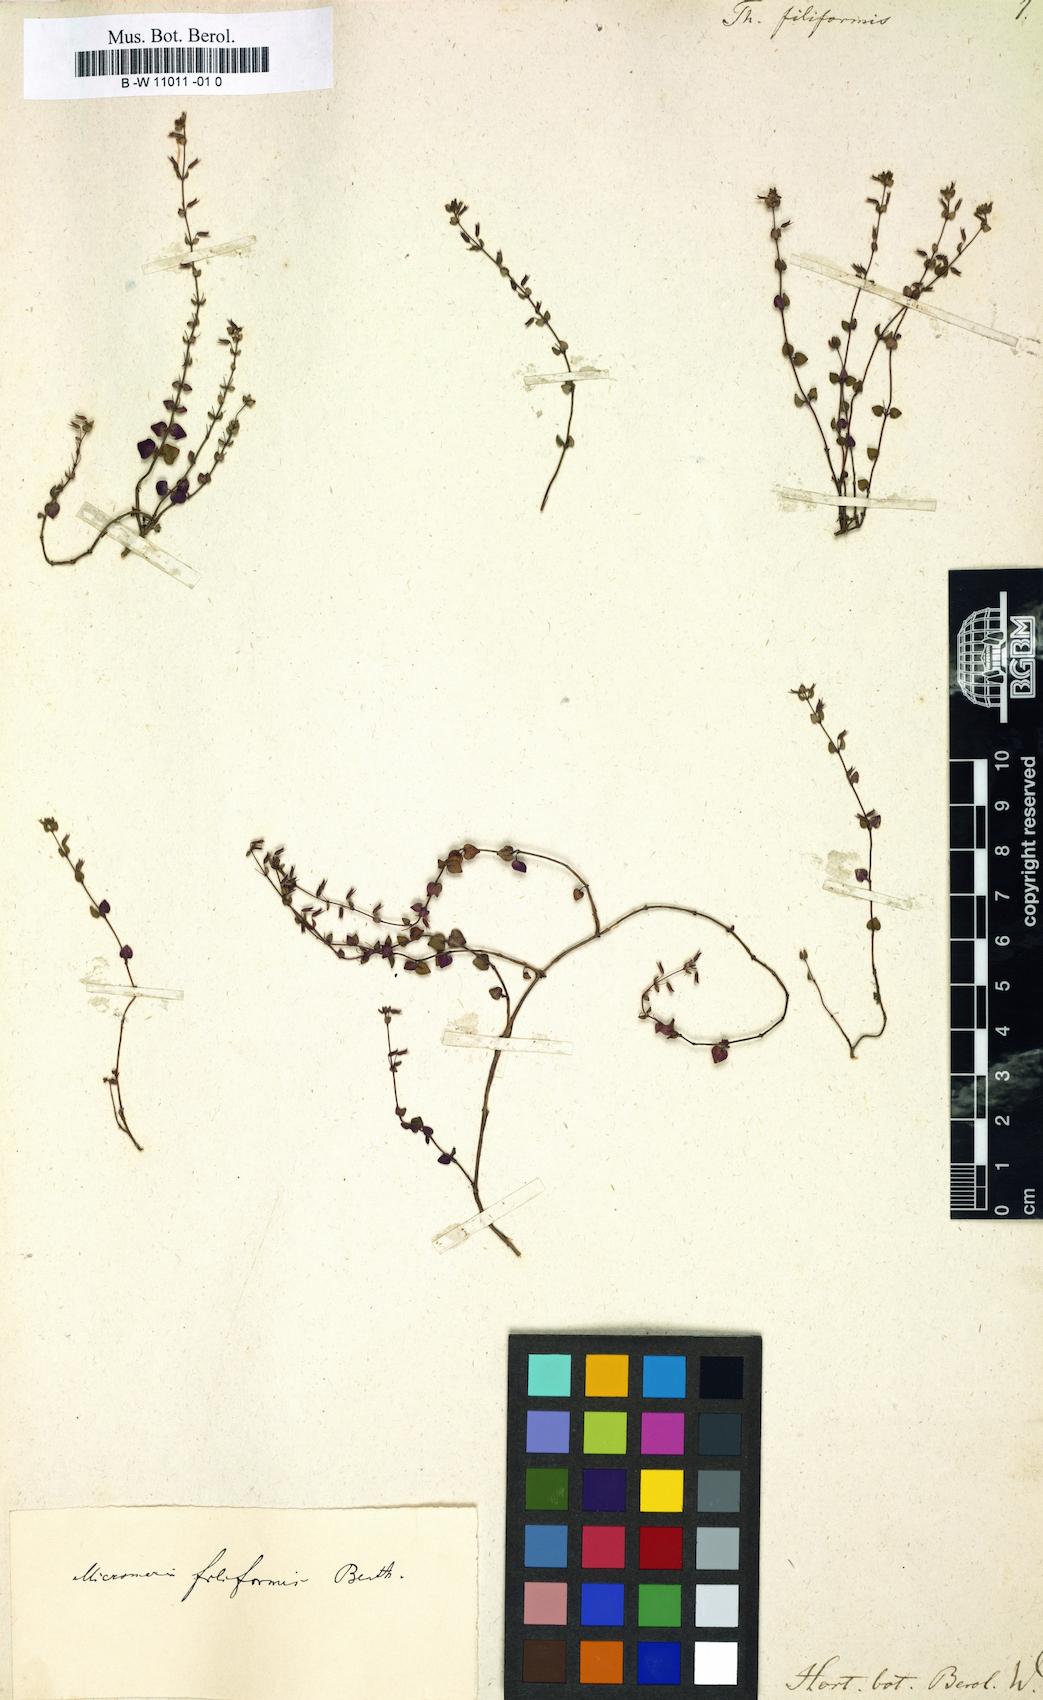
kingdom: Plantae
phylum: Tracheophyta
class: Magnoliopsida
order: Lamiales
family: Lamiaceae
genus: Thymus
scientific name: Thymus filiformis
